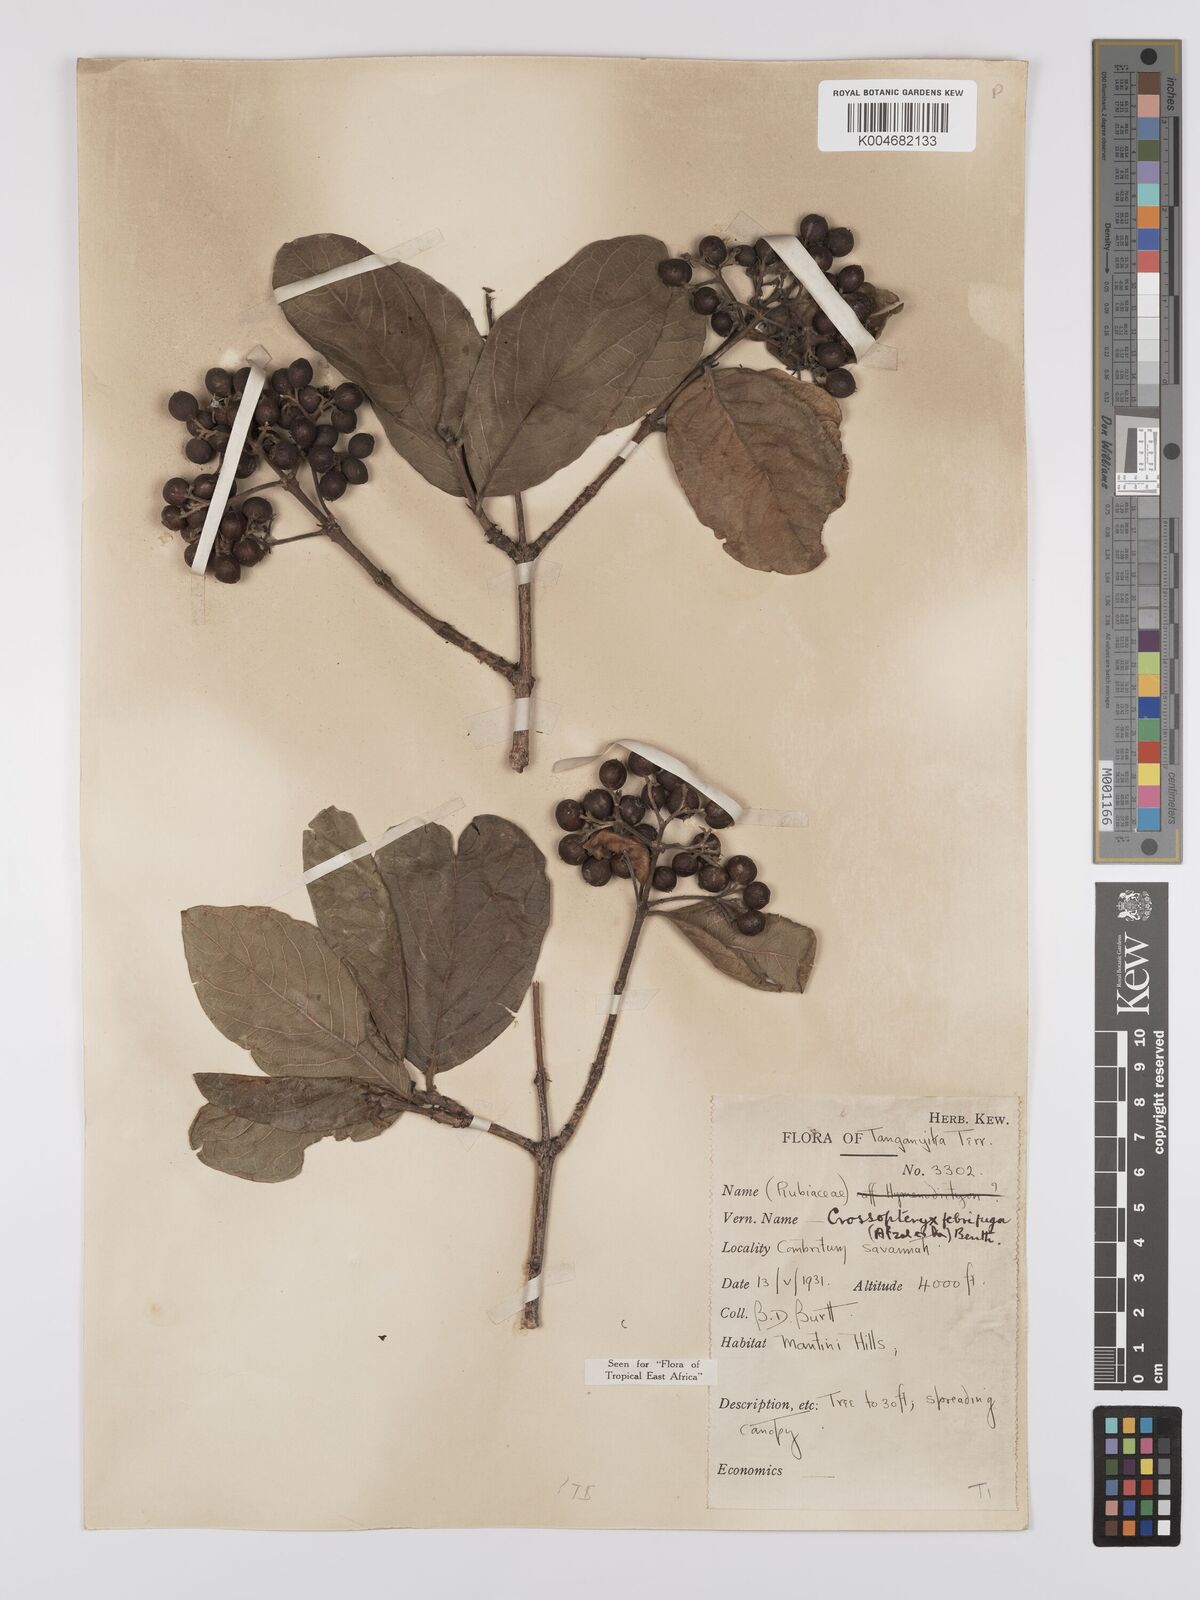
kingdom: Plantae
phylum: Tracheophyta
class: Magnoliopsida
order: Gentianales
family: Rubiaceae
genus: Crossopteryx
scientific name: Crossopteryx febrifuga
